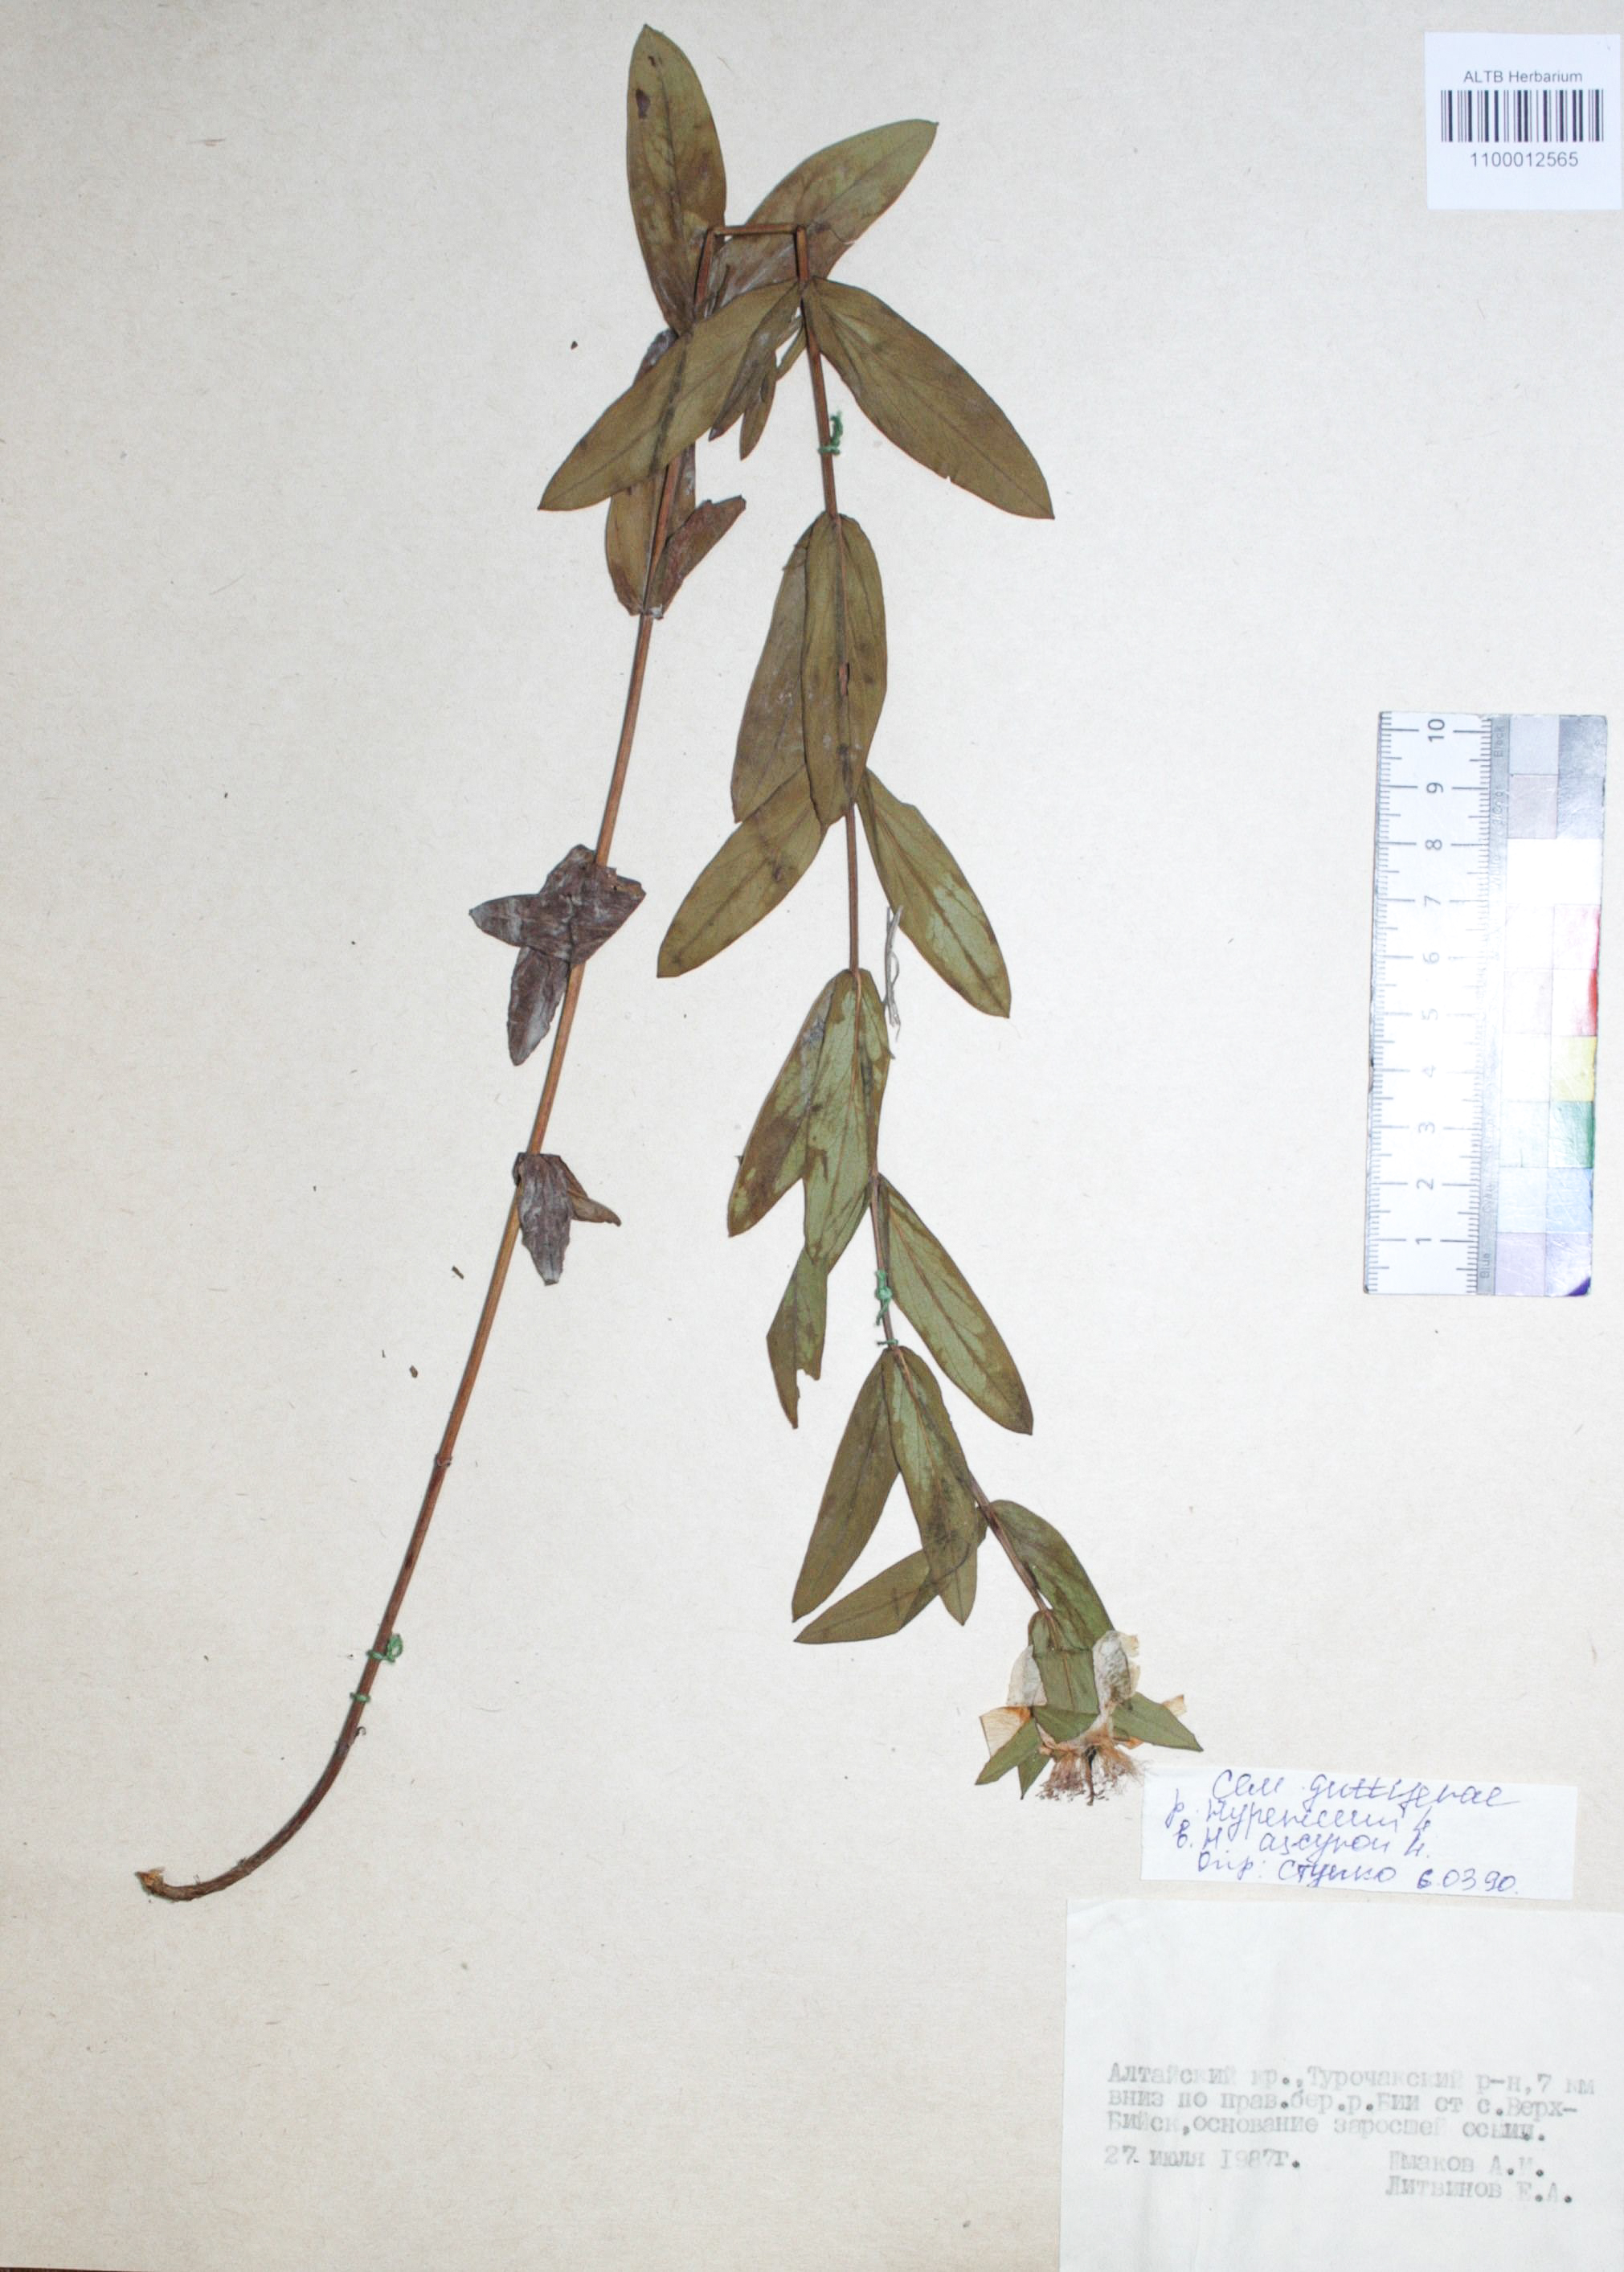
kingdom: Plantae
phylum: Tracheophyta
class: Magnoliopsida
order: Malpighiales
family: Hypericaceae
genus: Hypericum
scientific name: Hypericum ascyron
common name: Giant st. john's-wort
